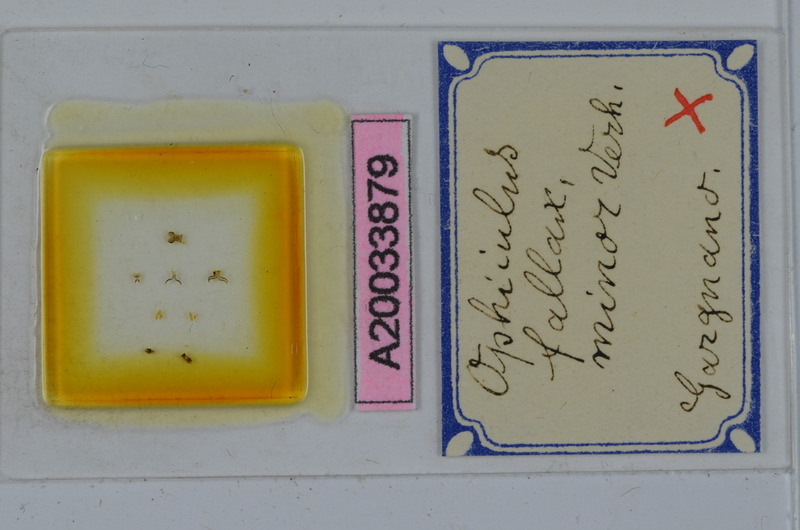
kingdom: Animalia
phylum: Arthropoda
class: Diplopoda
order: Julida
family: Julidae
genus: Ophyiulus
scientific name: Ophyiulus pilosus
